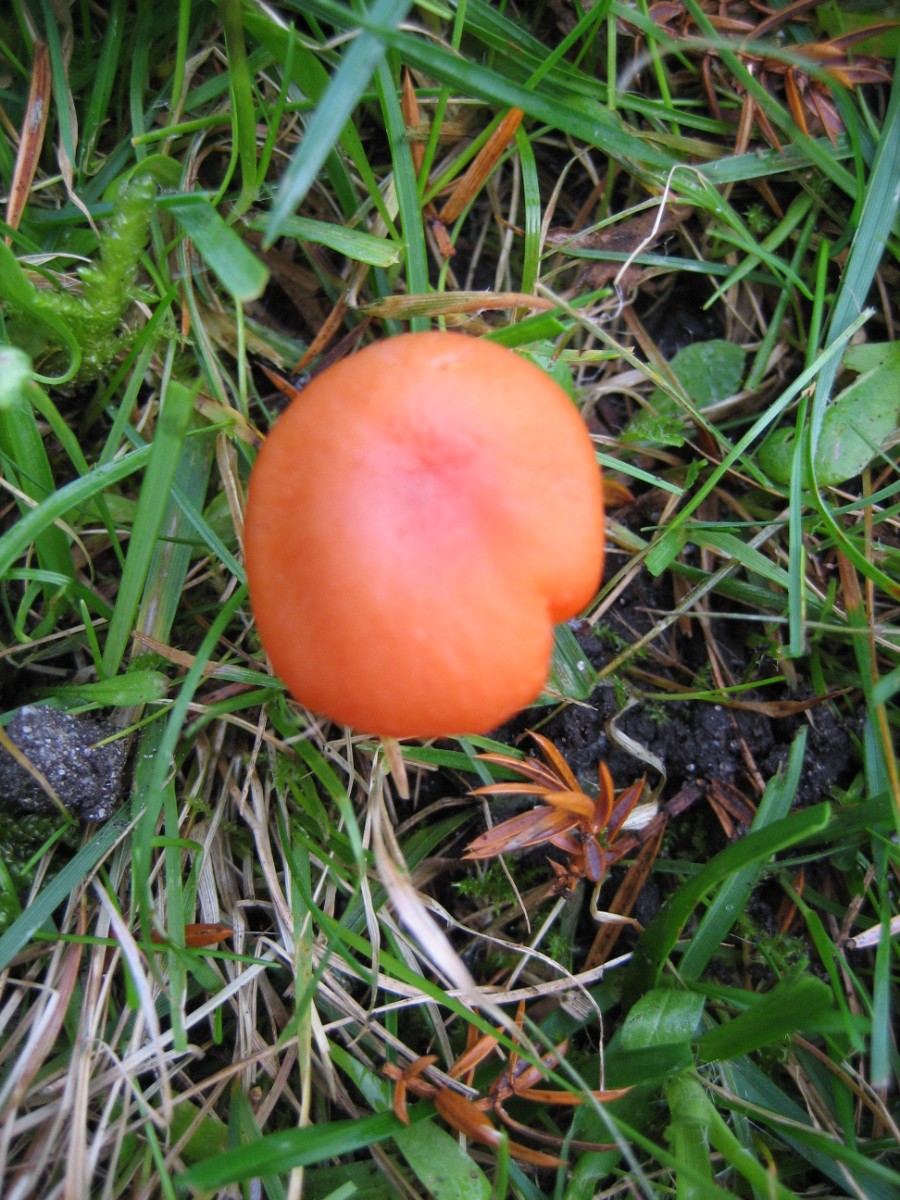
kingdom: Fungi
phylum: Basidiomycota
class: Agaricomycetes
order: Agaricales
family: Hygrophoraceae
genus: Hygrocybe
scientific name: Hygrocybe reidii
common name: honning-vokshat
